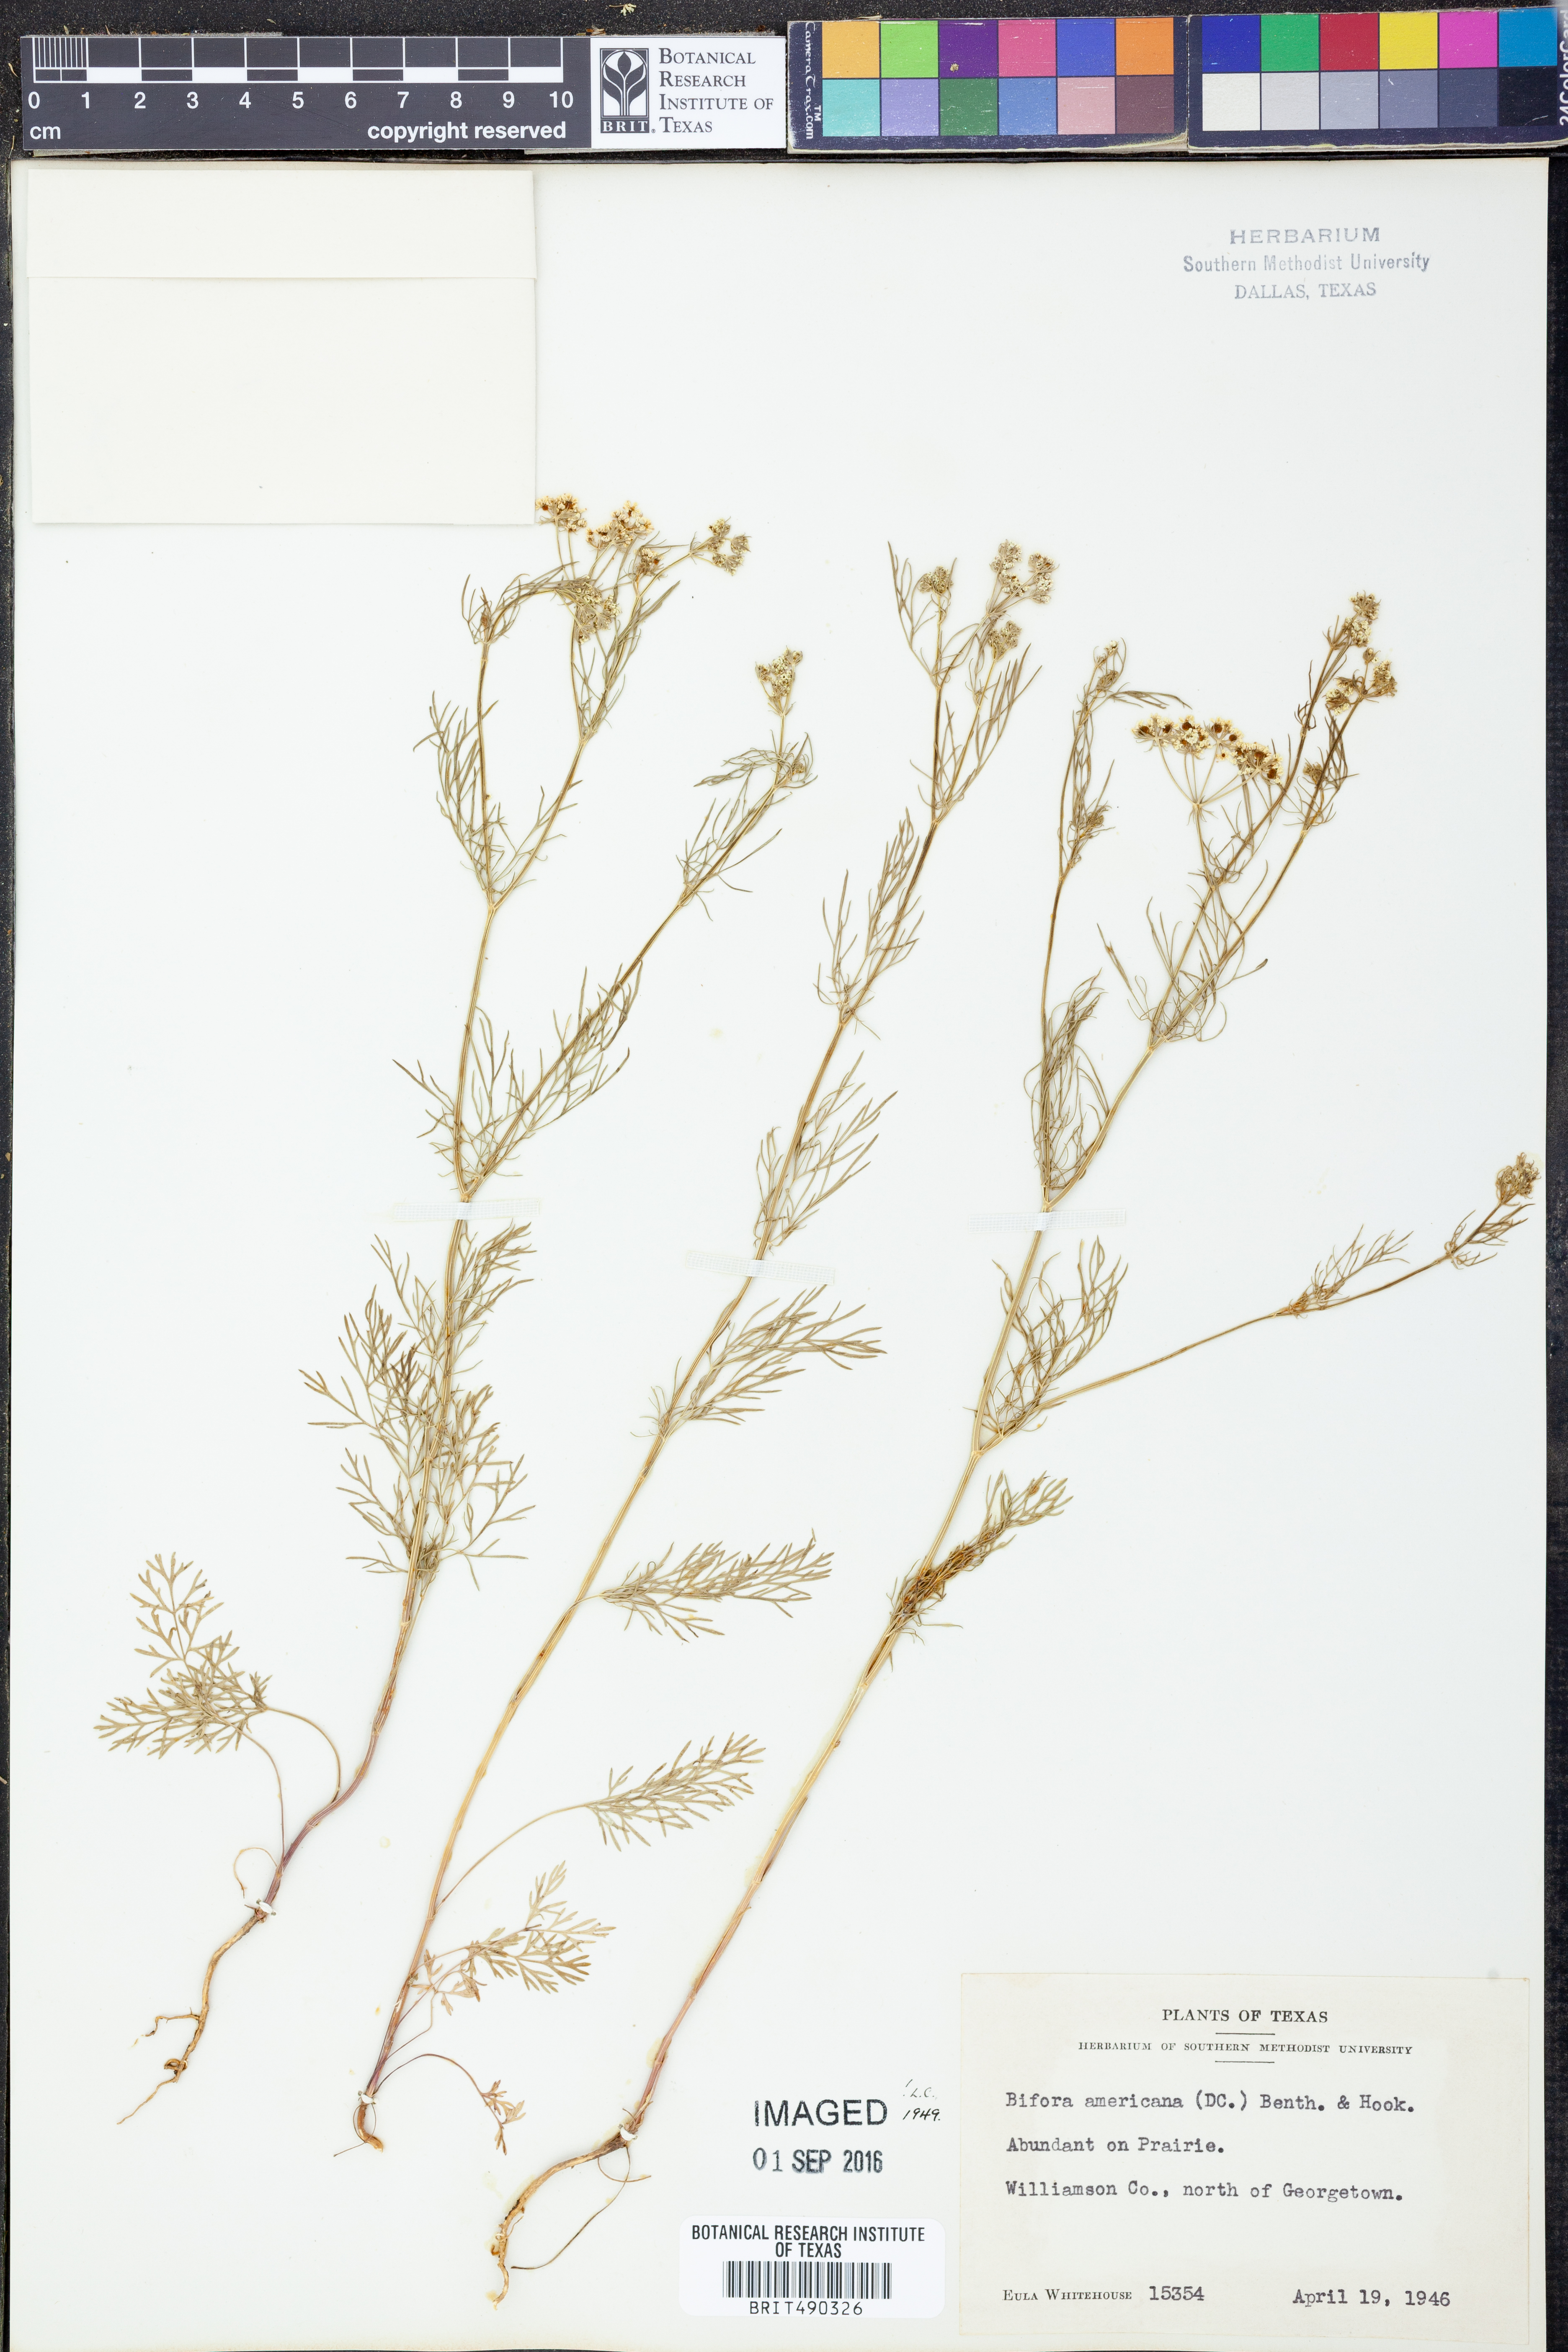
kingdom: Plantae
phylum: Tracheophyta
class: Magnoliopsida
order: Apiales
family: Apiaceae
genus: Atrema
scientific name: Atrema americanum
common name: Prairie-bishop
